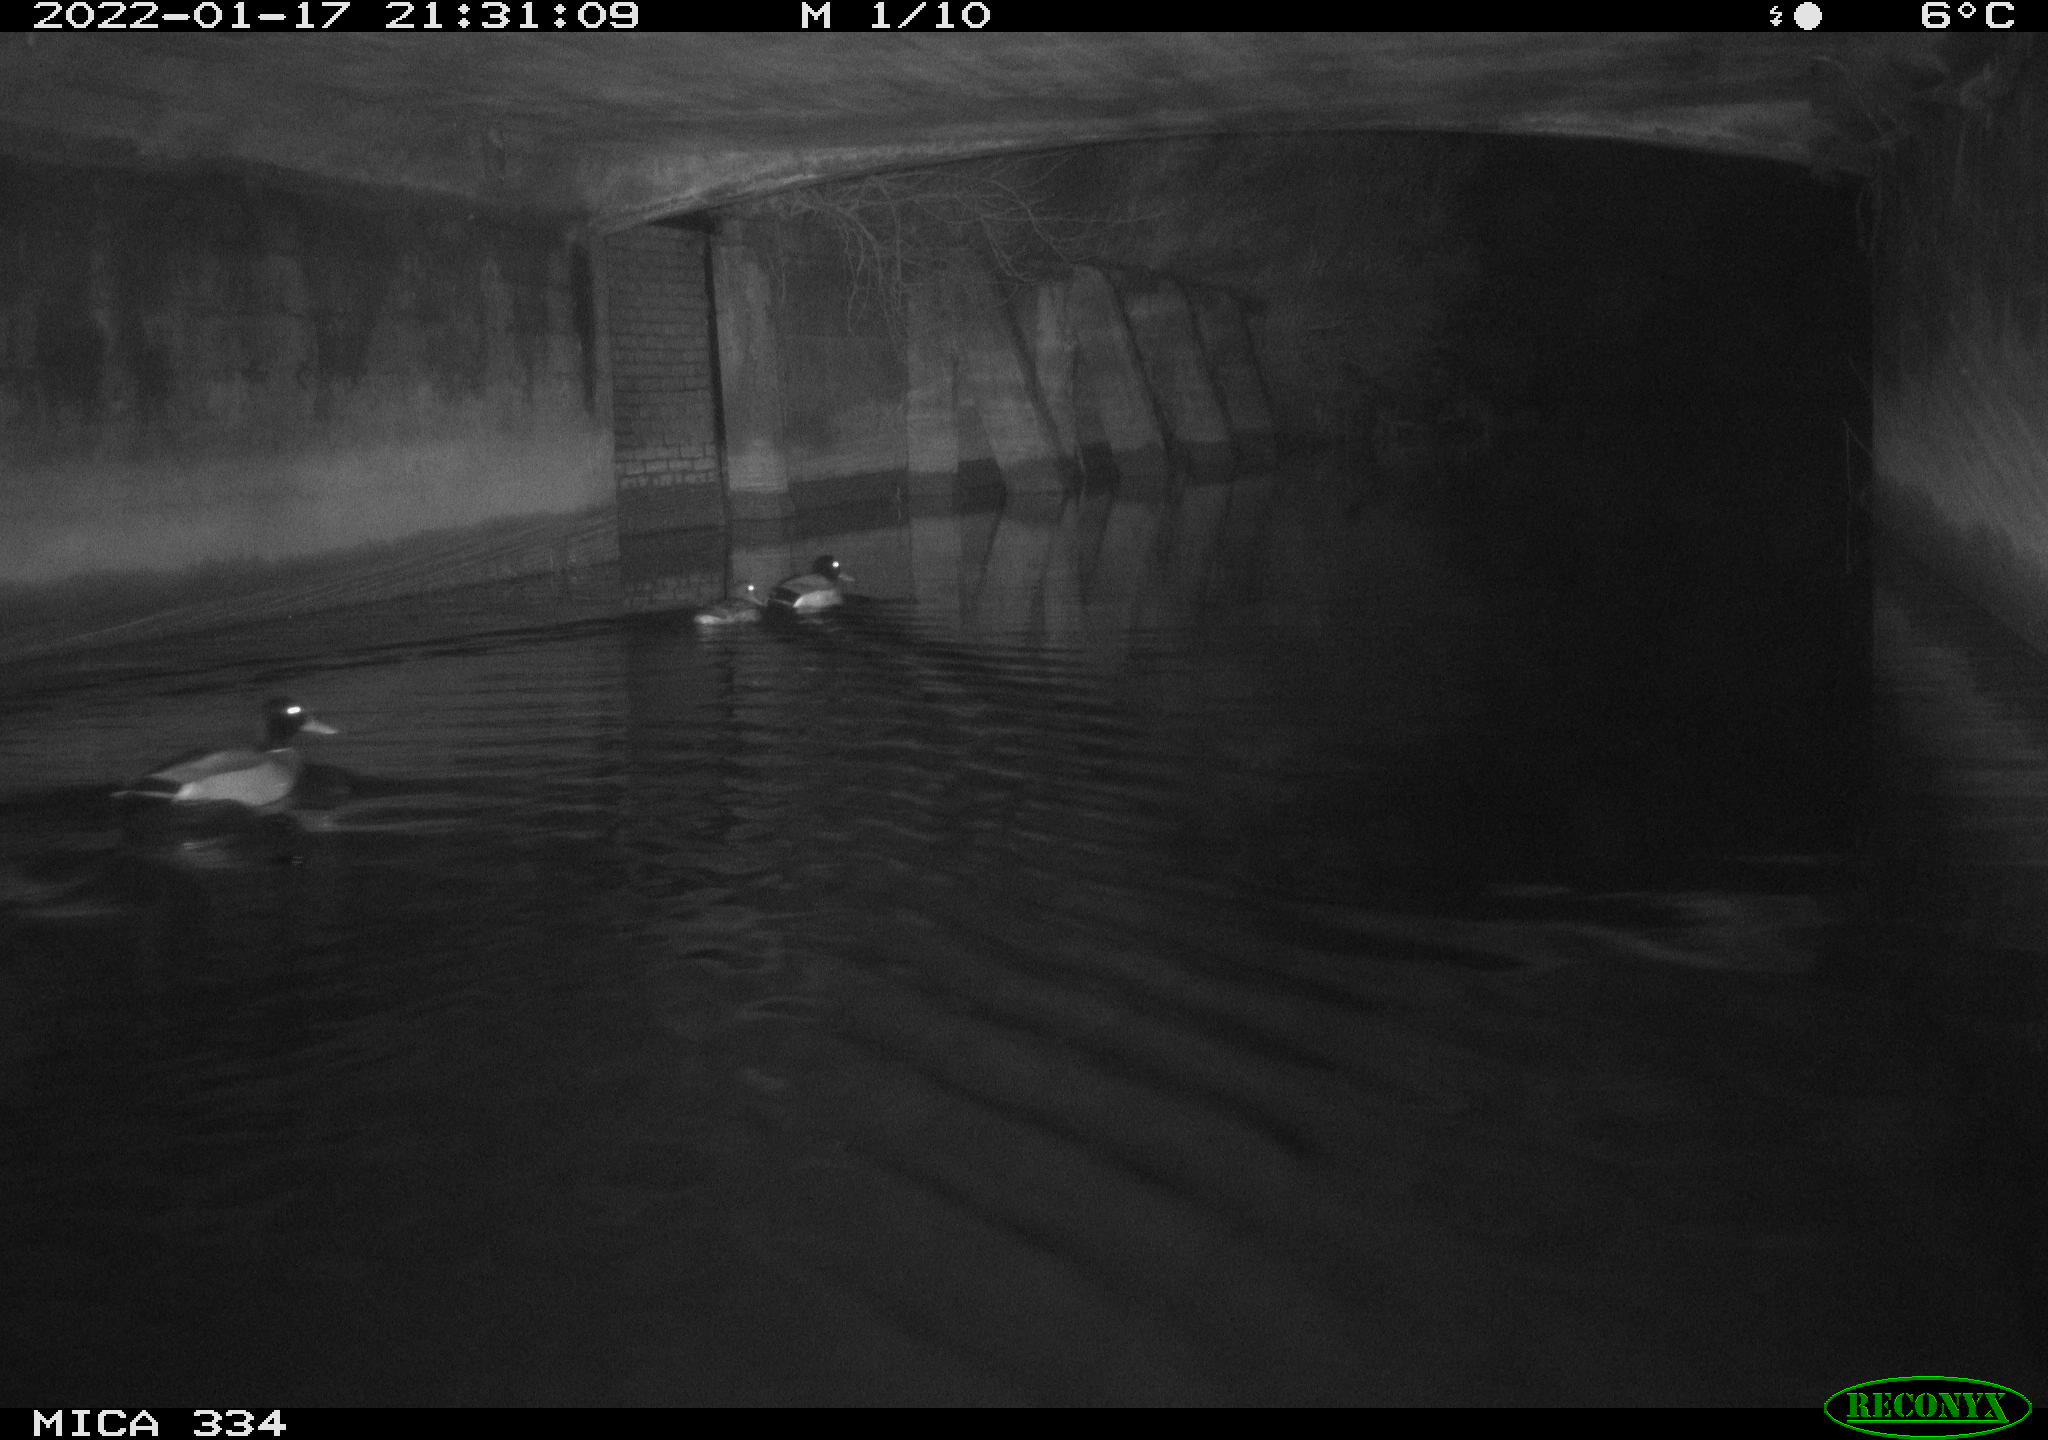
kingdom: Animalia
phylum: Chordata
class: Aves
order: Anseriformes
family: Anatidae
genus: Anas
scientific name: Anas platyrhynchos
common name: Mallard
